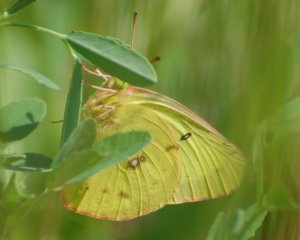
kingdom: Animalia
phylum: Arthropoda
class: Insecta
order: Lepidoptera
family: Pieridae
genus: Colias
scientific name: Colias philodice
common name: Clouded Sulphur
